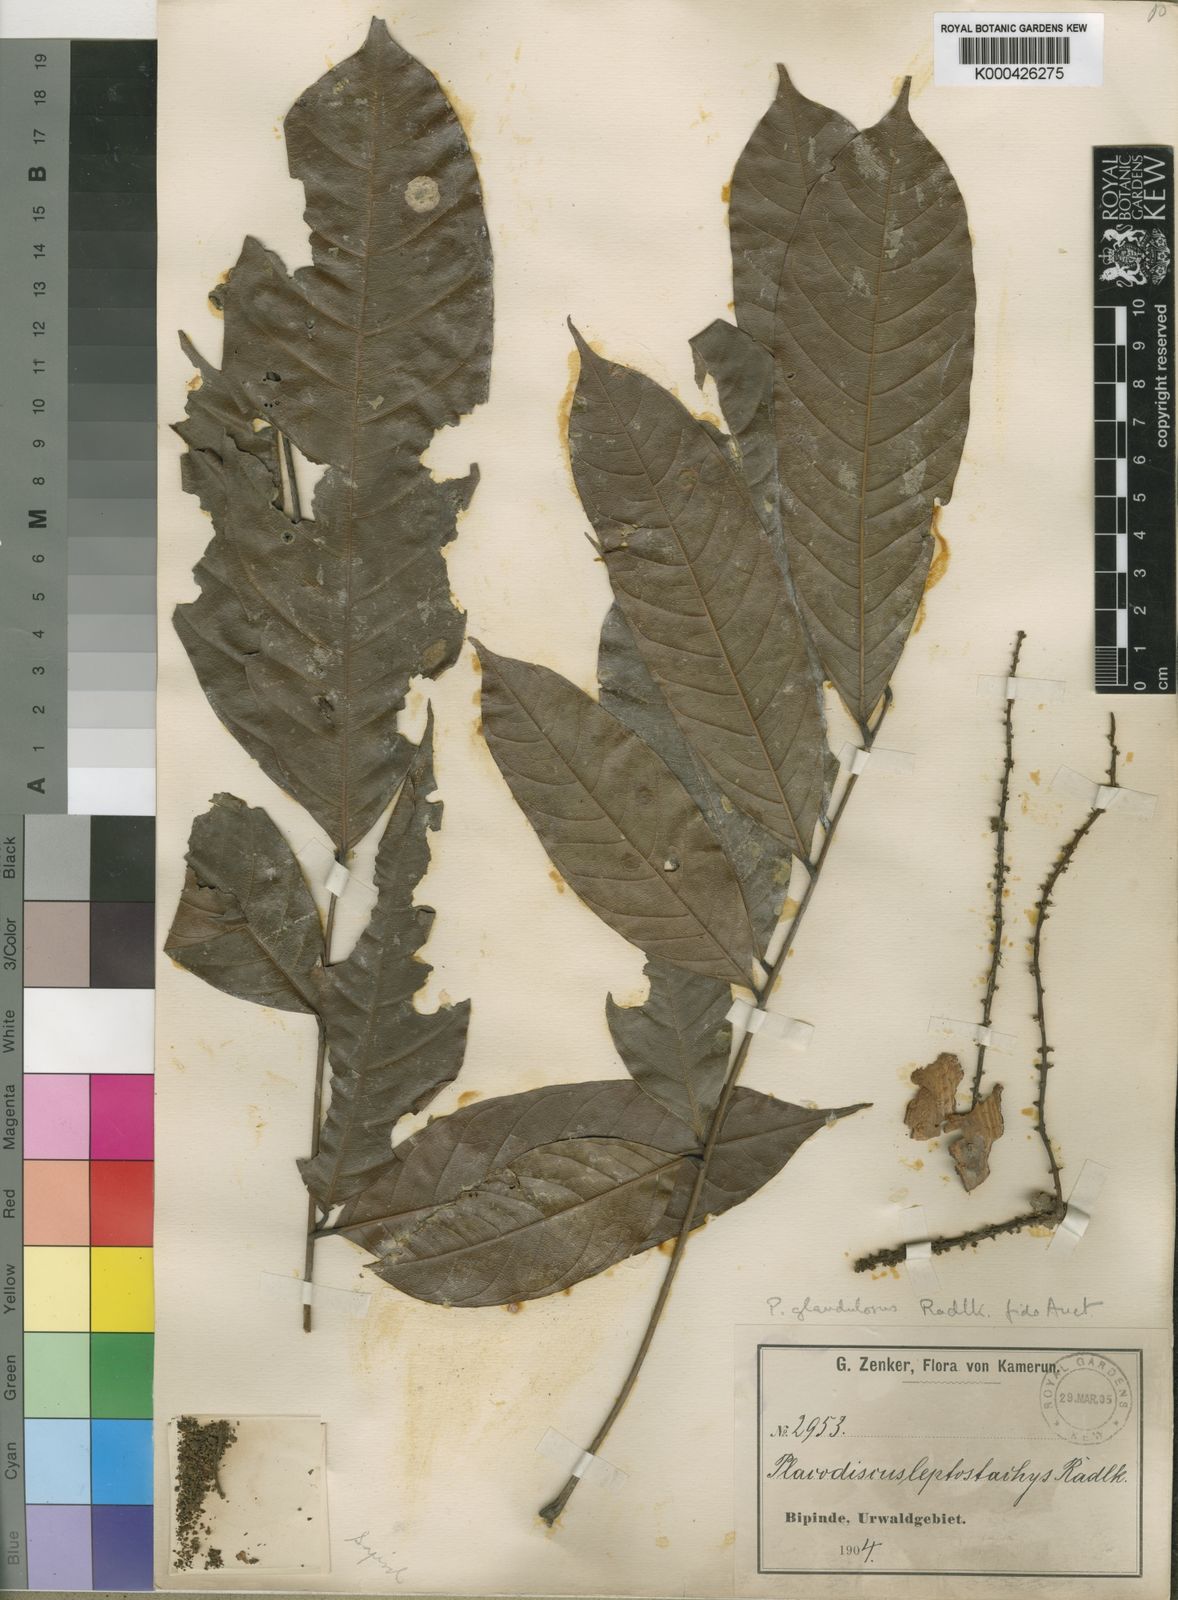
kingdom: Plantae
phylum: Tracheophyta
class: Magnoliopsida
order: Sapindales
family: Sapindaceae
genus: Placodiscus
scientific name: Placodiscus glandulosus
